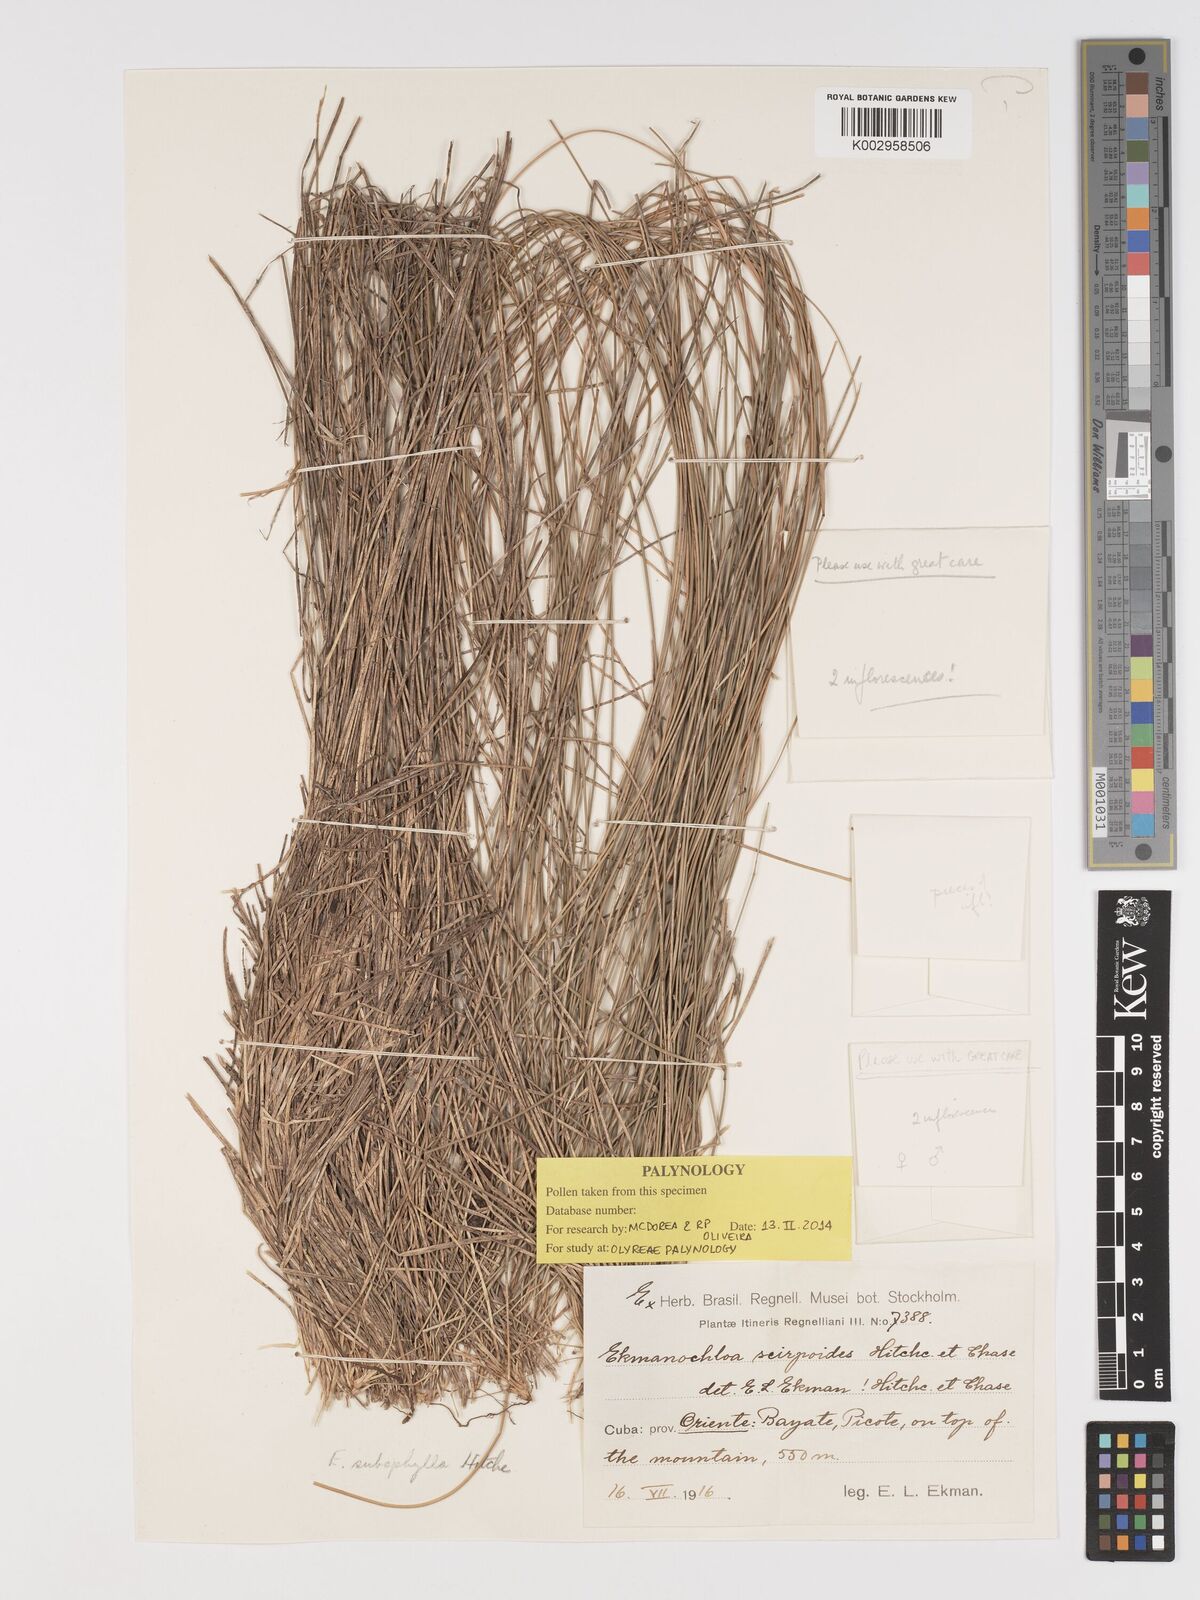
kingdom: Plantae
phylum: Tracheophyta
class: Liliopsida
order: Poales
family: Poaceae
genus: Ekmanochloa
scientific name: Ekmanochloa subaphylla
